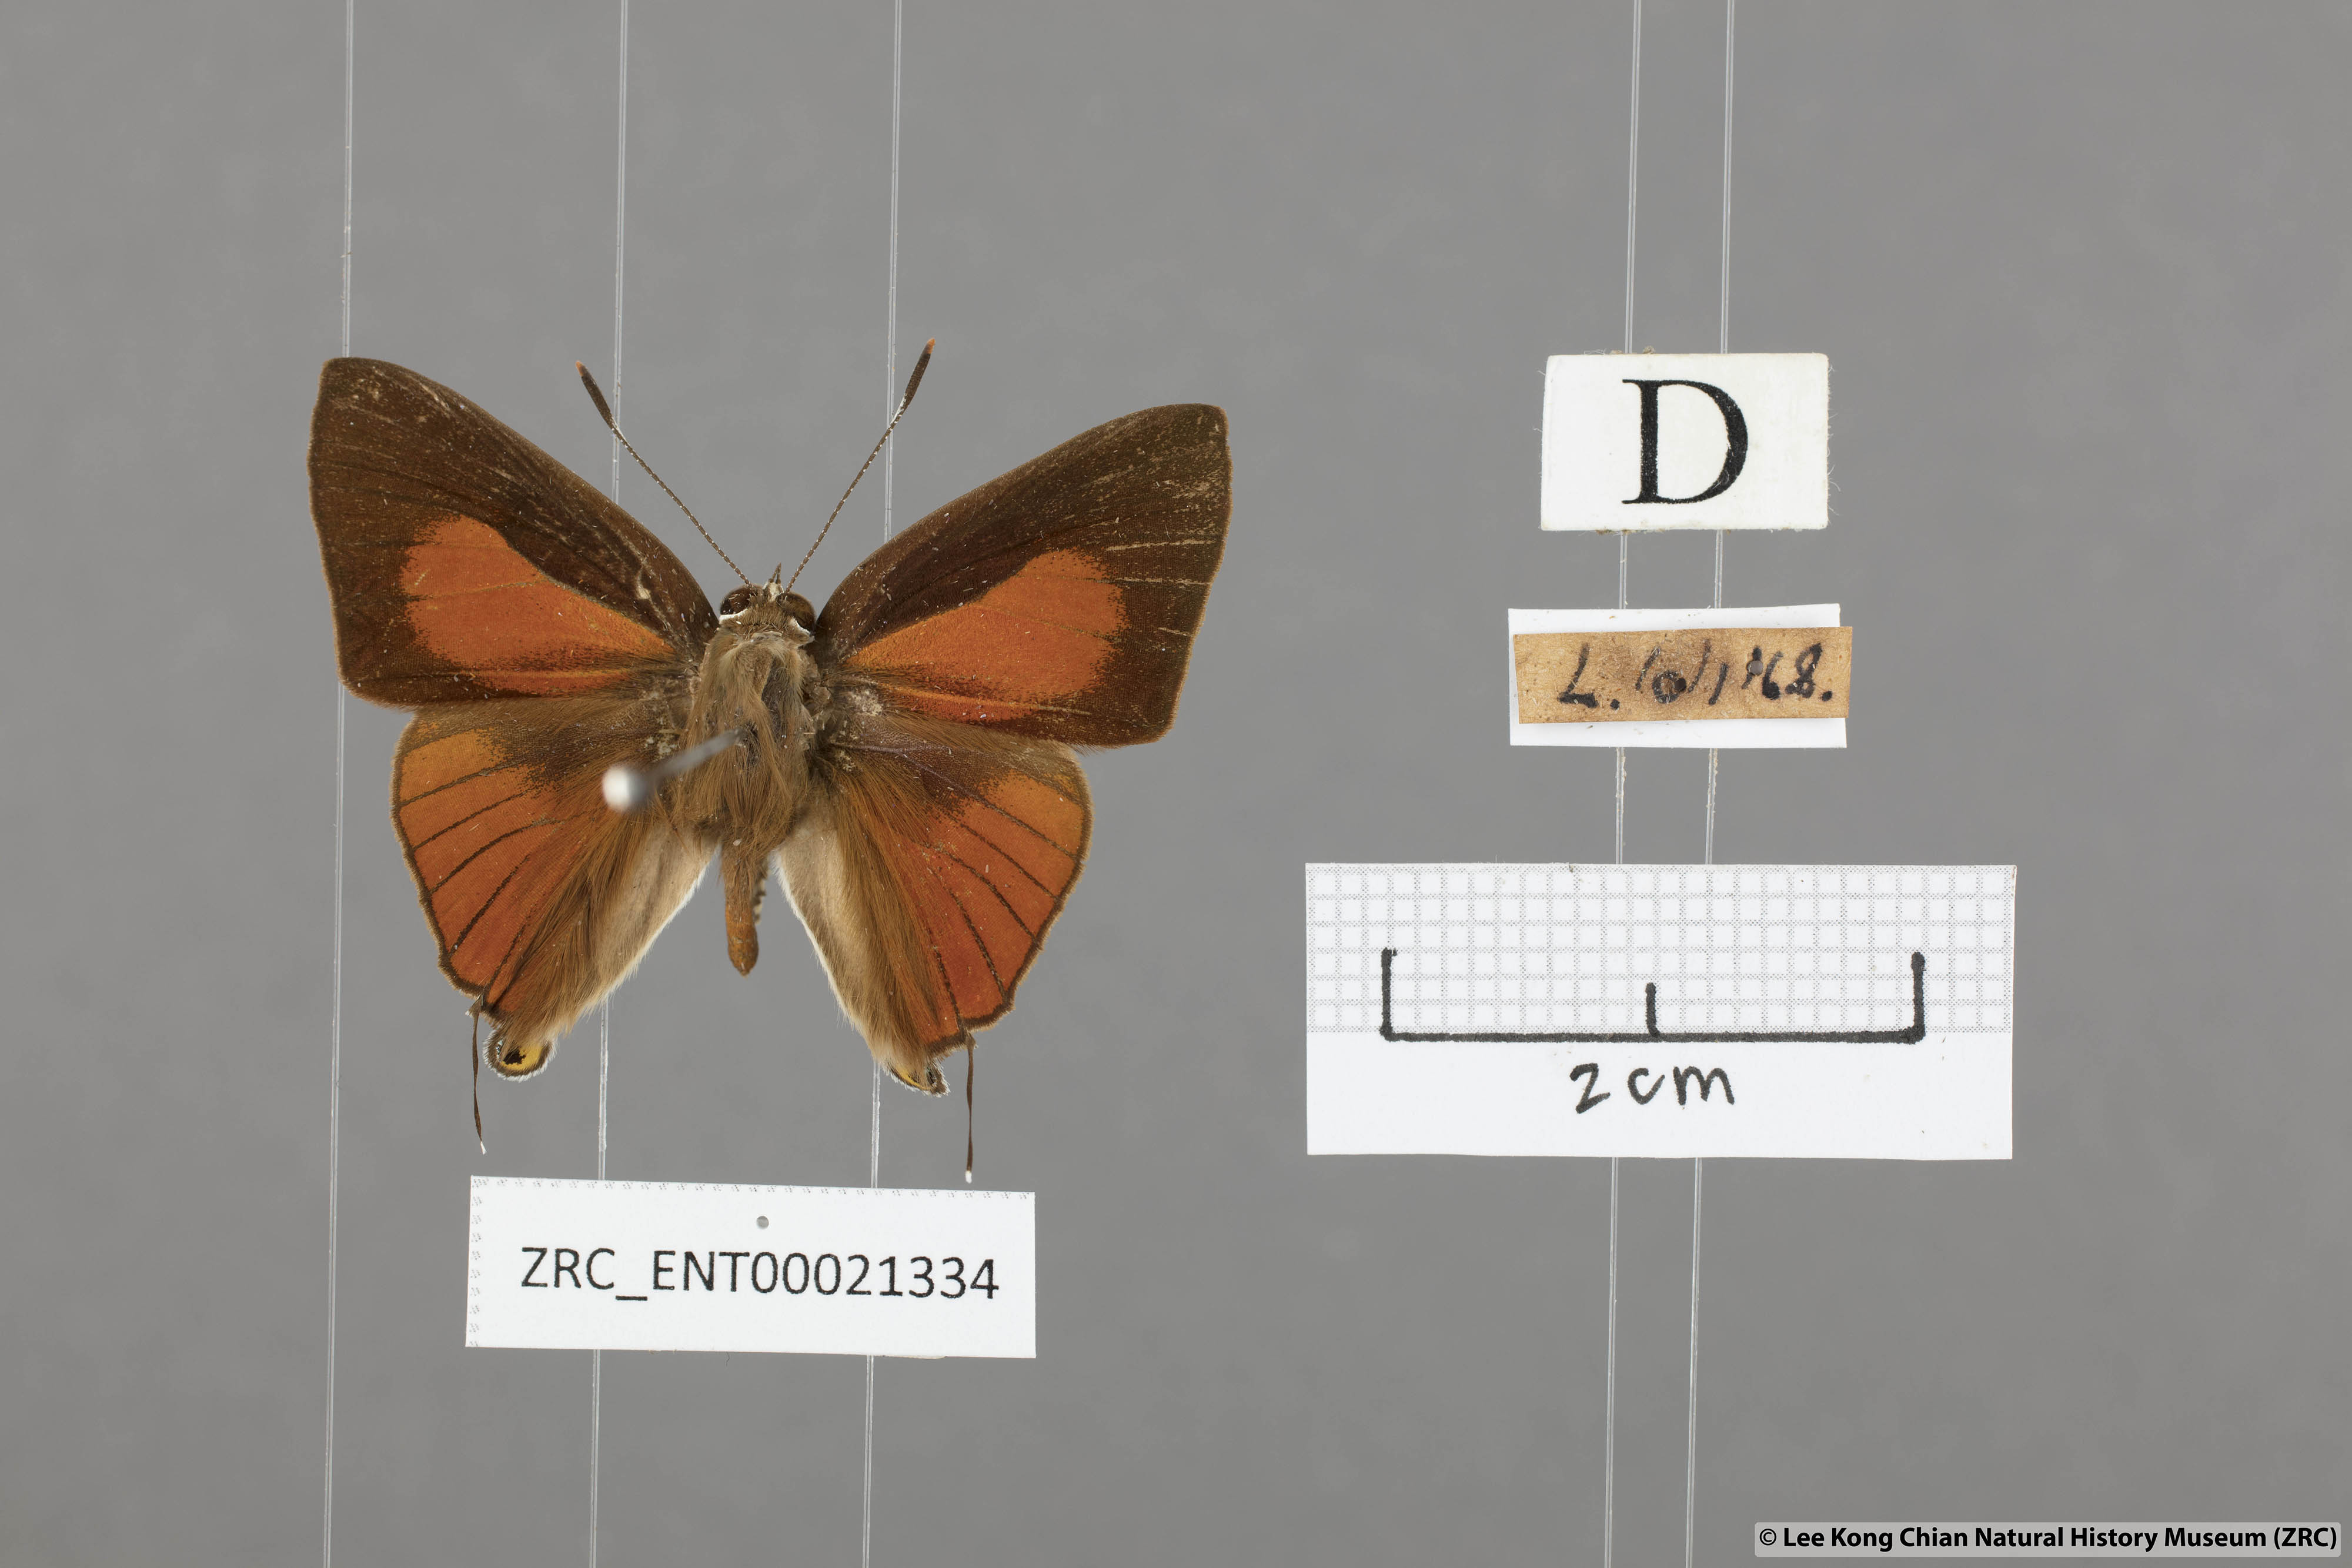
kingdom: Animalia
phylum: Arthropoda
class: Insecta
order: Lepidoptera
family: Lycaenidae
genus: Deudorix
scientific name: Deudorix epijarbas
